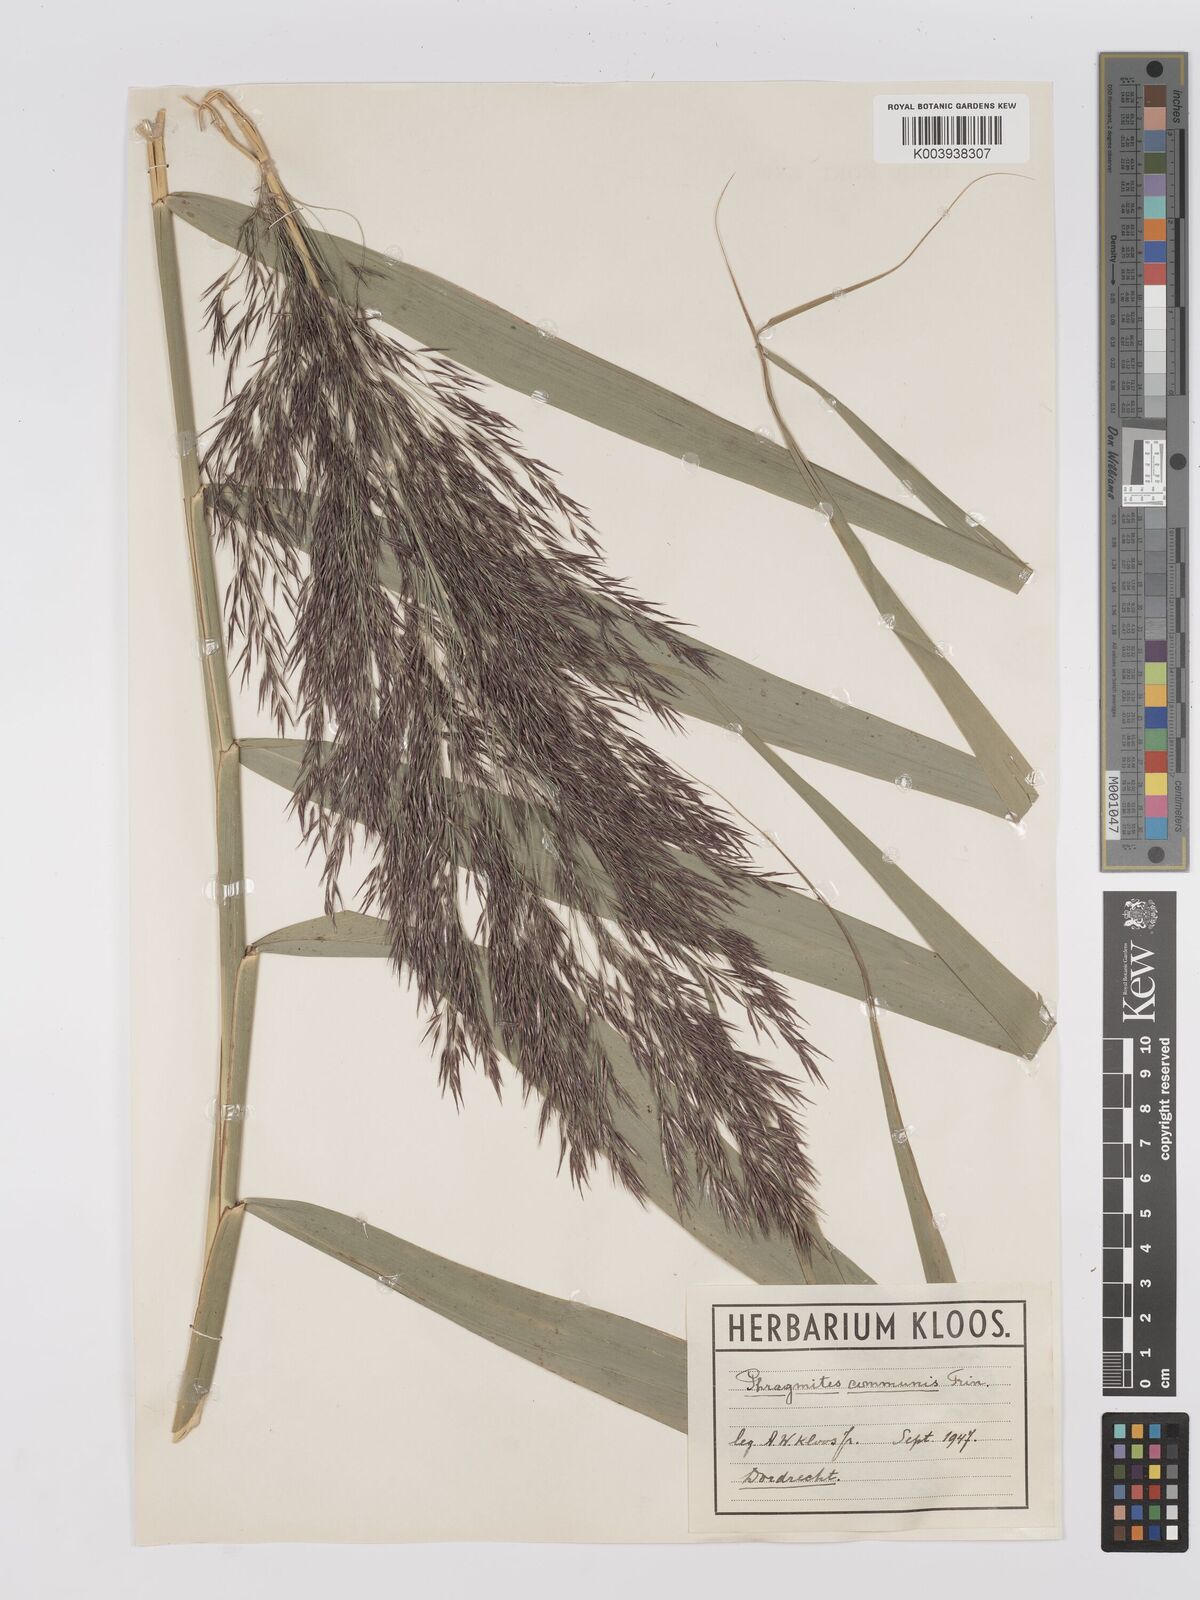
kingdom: Plantae
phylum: Tracheophyta
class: Liliopsida
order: Poales
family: Poaceae
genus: Phragmites
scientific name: Phragmites australis
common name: Common reed
